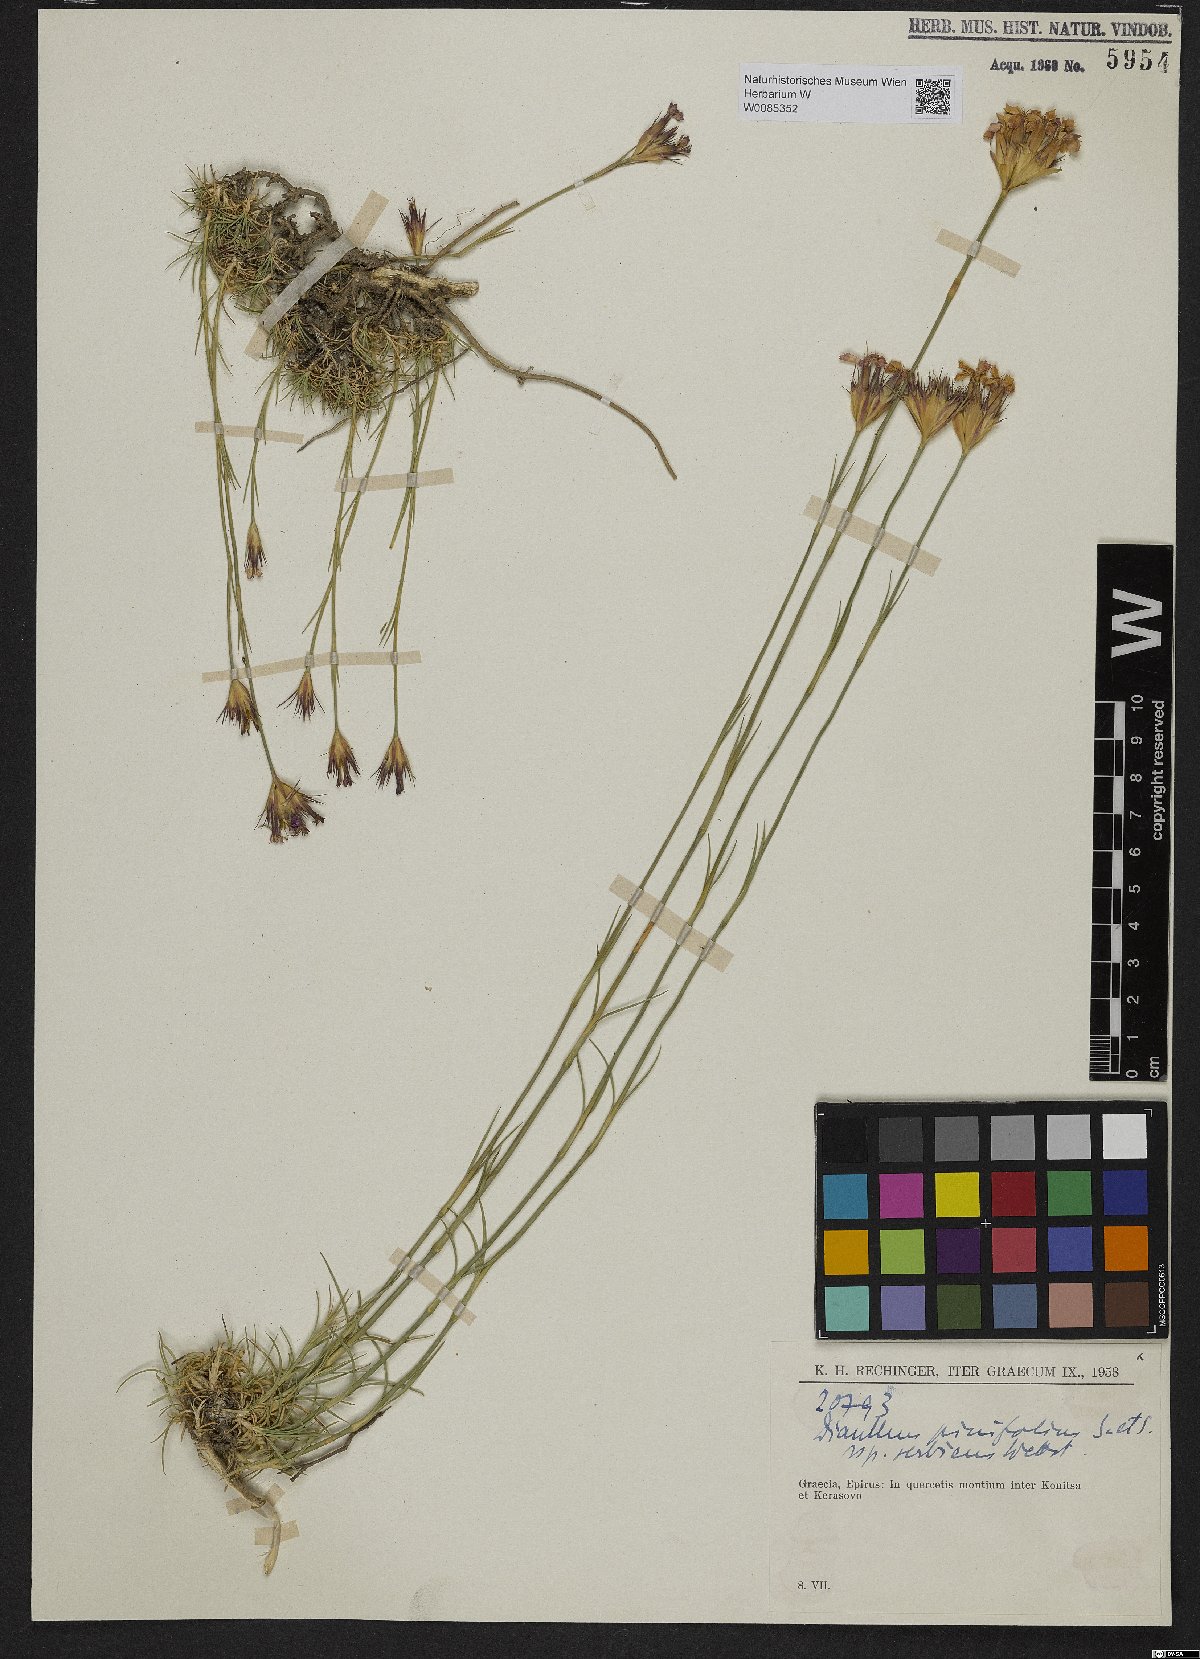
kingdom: Plantae
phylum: Tracheophyta
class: Magnoliopsida
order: Caryophyllales
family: Caryophyllaceae
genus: Dianthus
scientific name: Dianthus pinifolius
